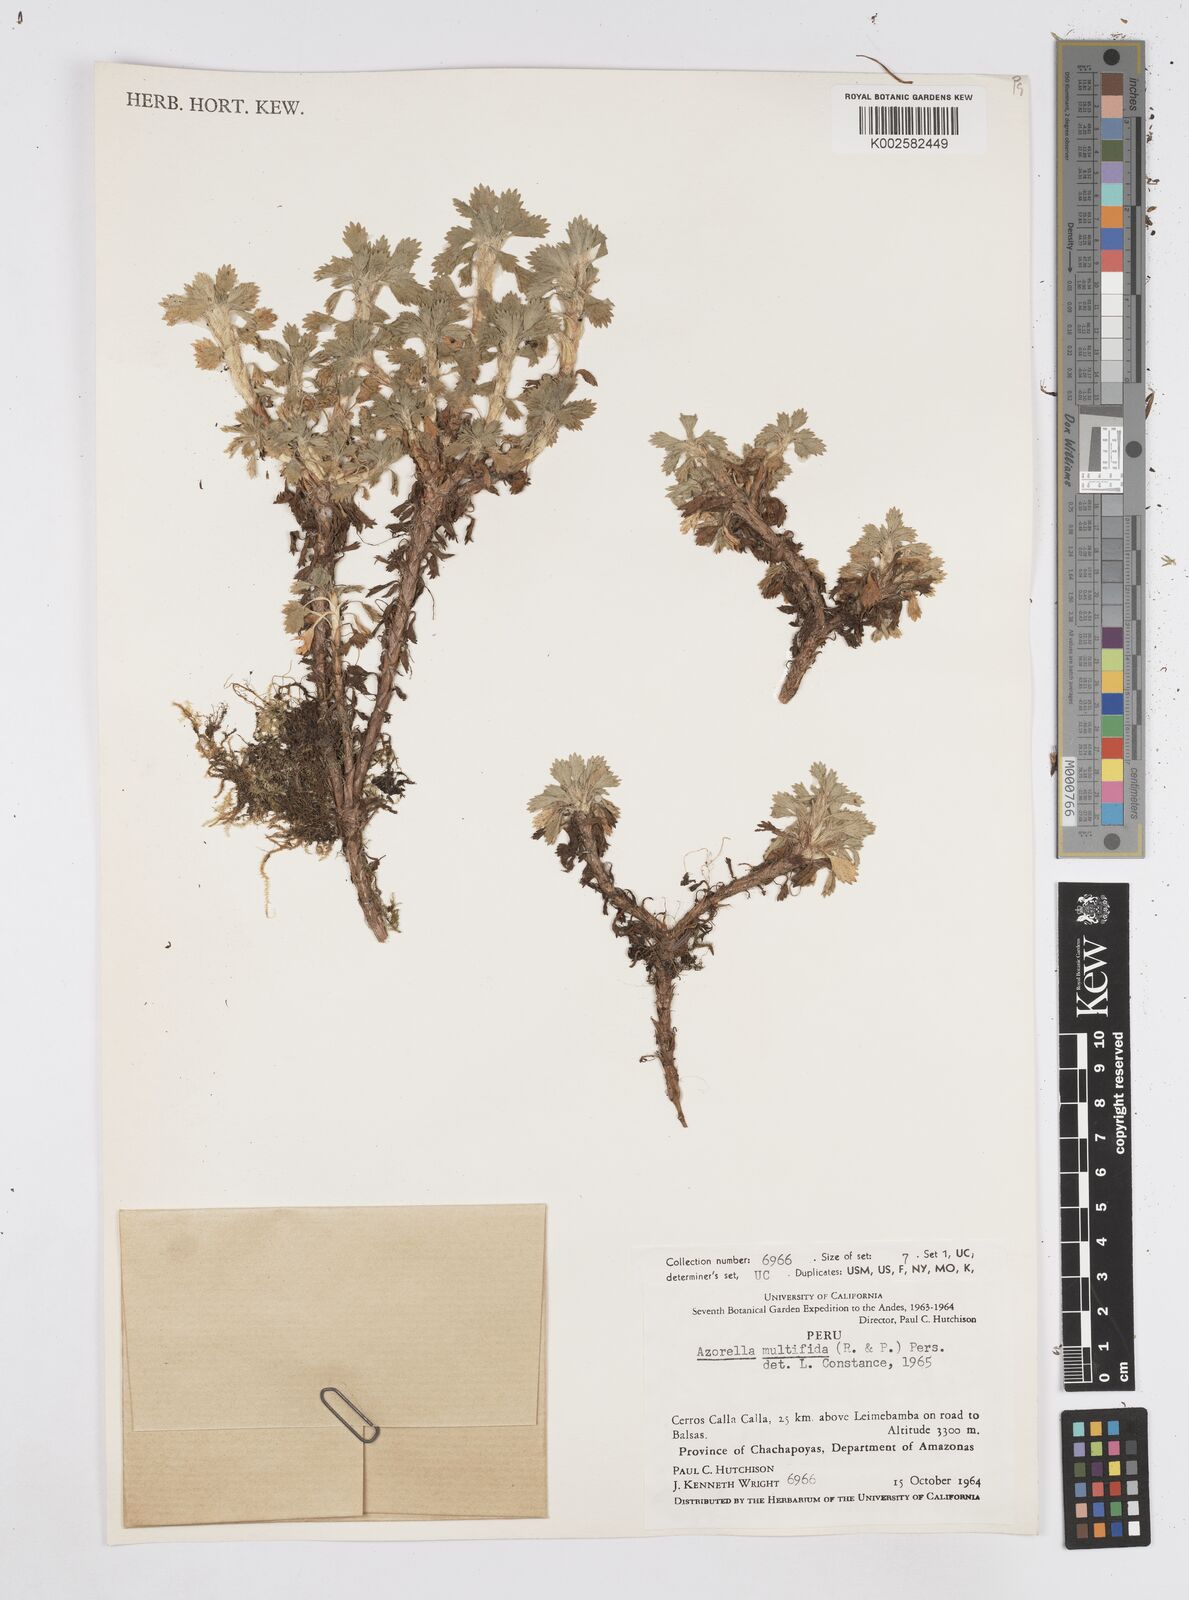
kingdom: Plantae
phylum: Tracheophyta
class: Magnoliopsida
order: Apiales
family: Apiaceae
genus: Azorella
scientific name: Azorella multifida
